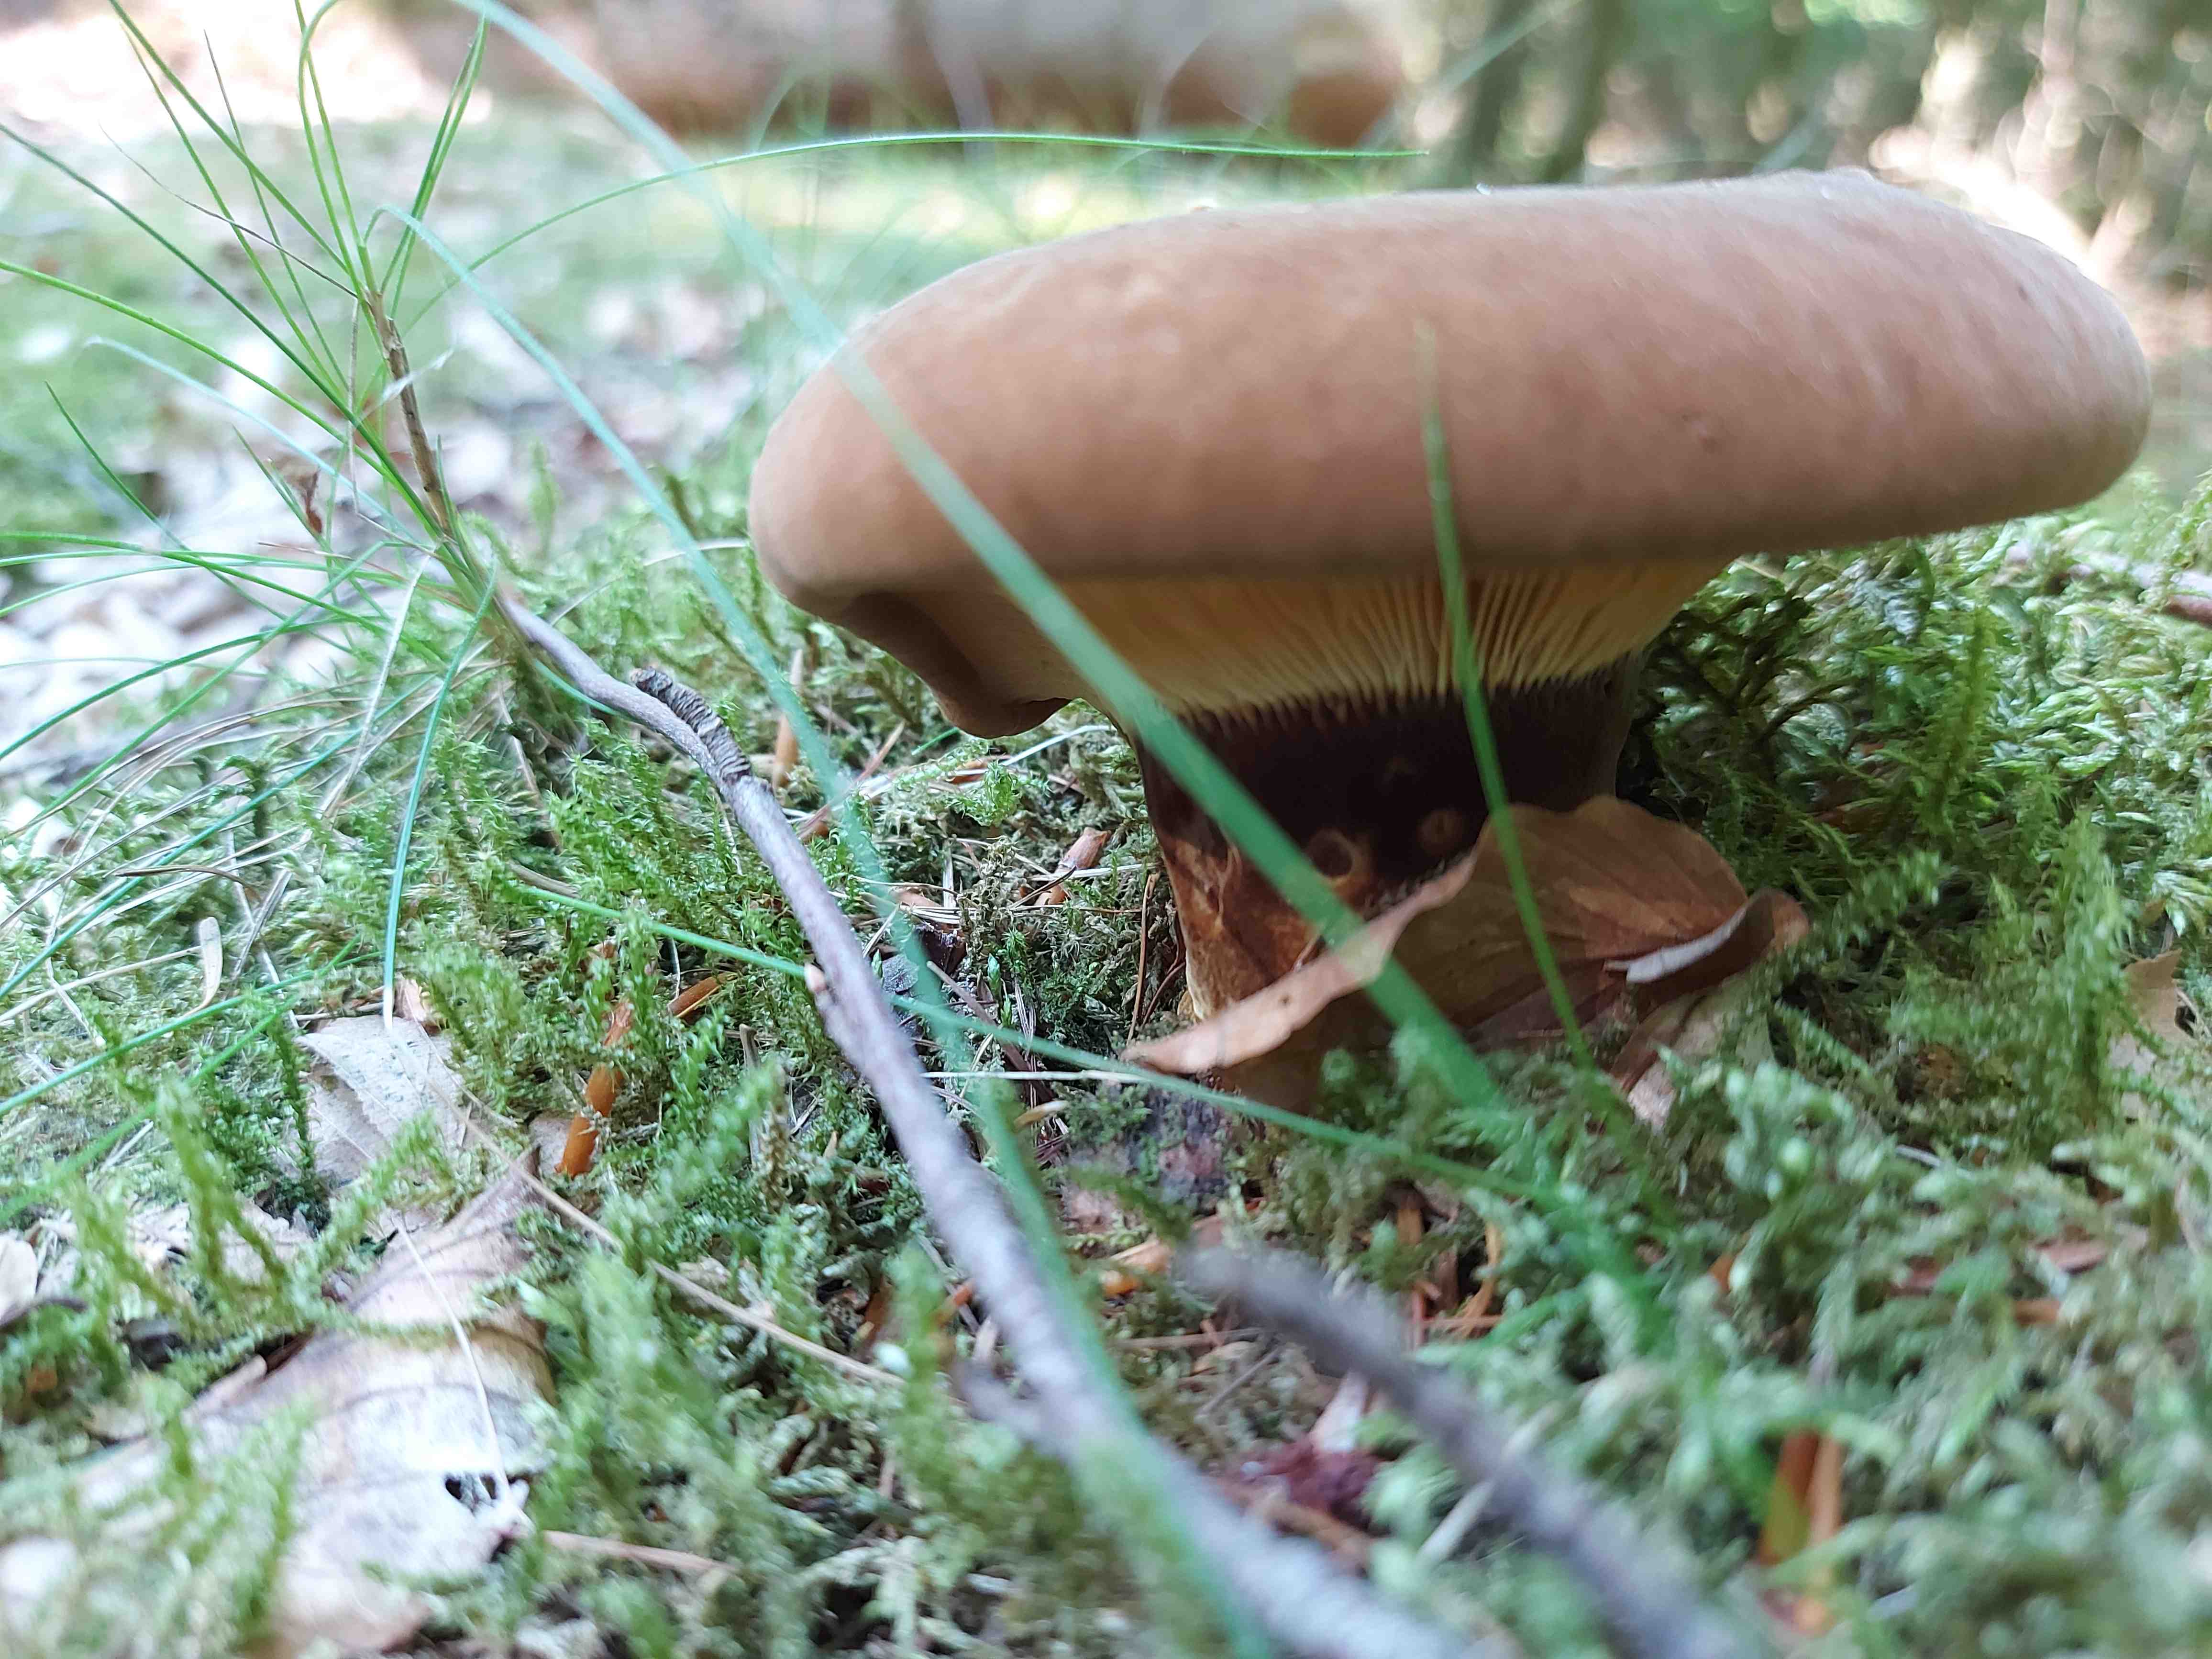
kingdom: Fungi
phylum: Basidiomycota
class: Agaricomycetes
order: Boletales
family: Tapinellaceae
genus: Tapinella
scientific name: Tapinella atrotomentosa
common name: sortfiltet viftesvamp
